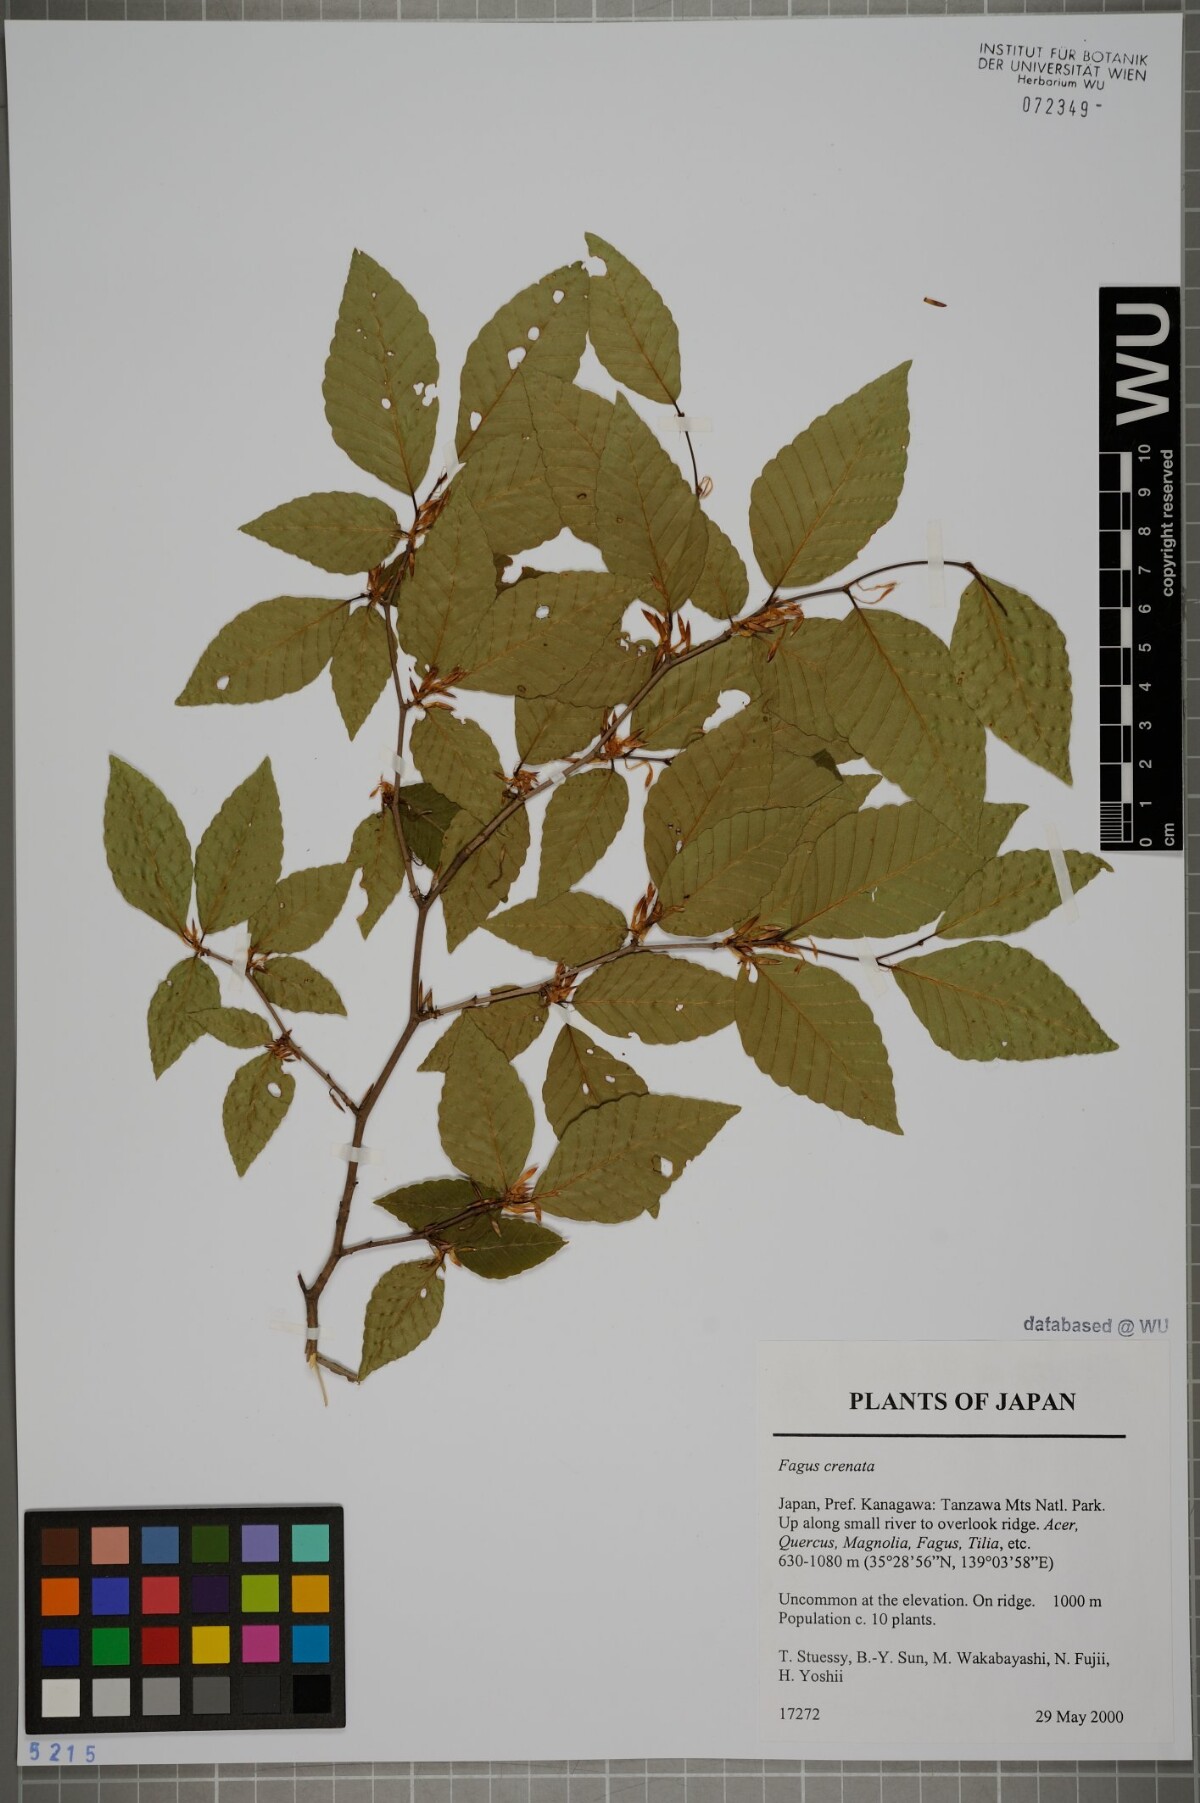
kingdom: Plantae
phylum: Tracheophyta
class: Magnoliopsida
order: Fagales
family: Fagaceae
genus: Fagus
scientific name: Fagus crenata
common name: Japanese beech
